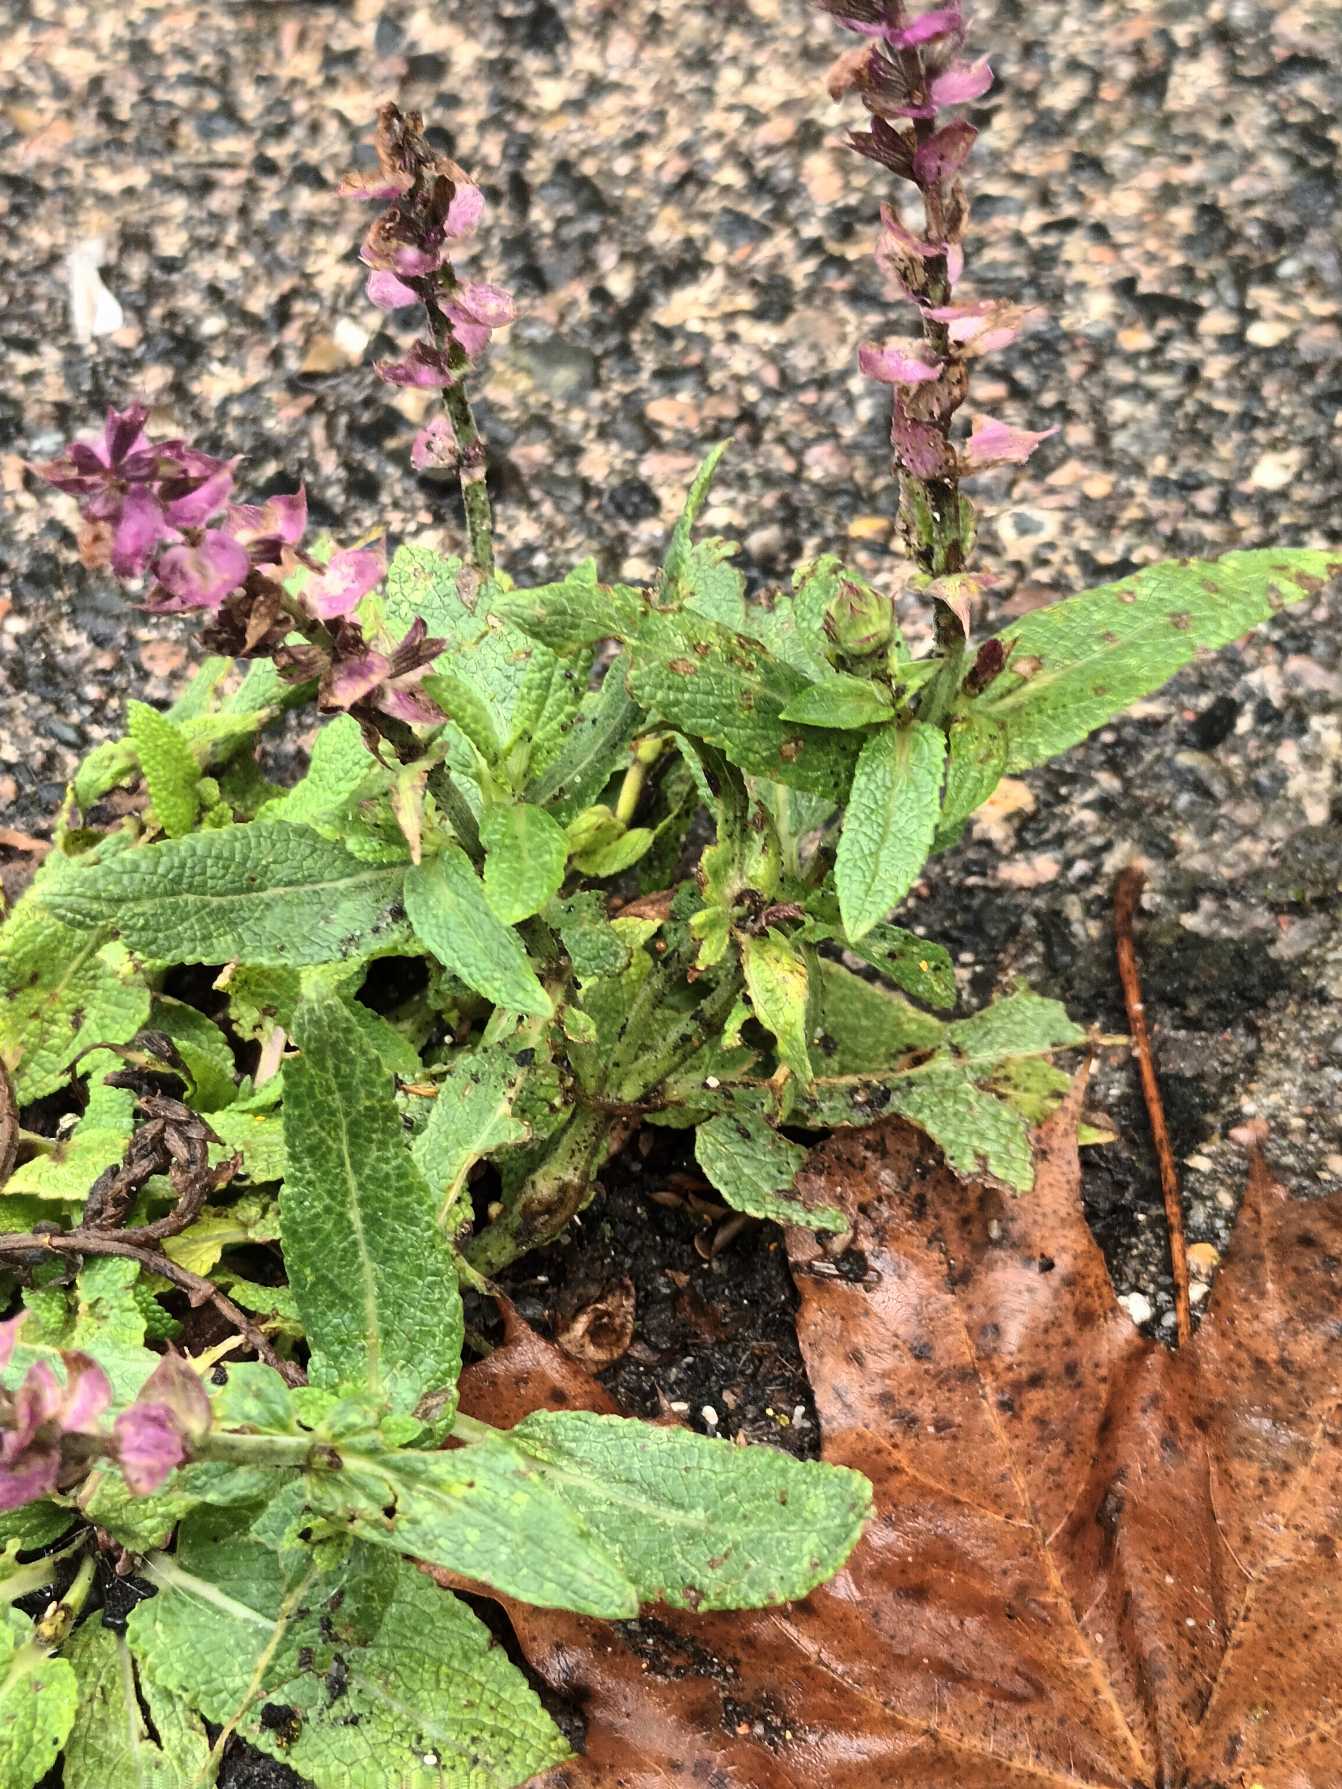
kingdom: Plantae
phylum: Tracheophyta
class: Magnoliopsida
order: Lamiales
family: Lamiaceae
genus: Salvia
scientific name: Salvia nemorosa
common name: Småblomstret salvie
